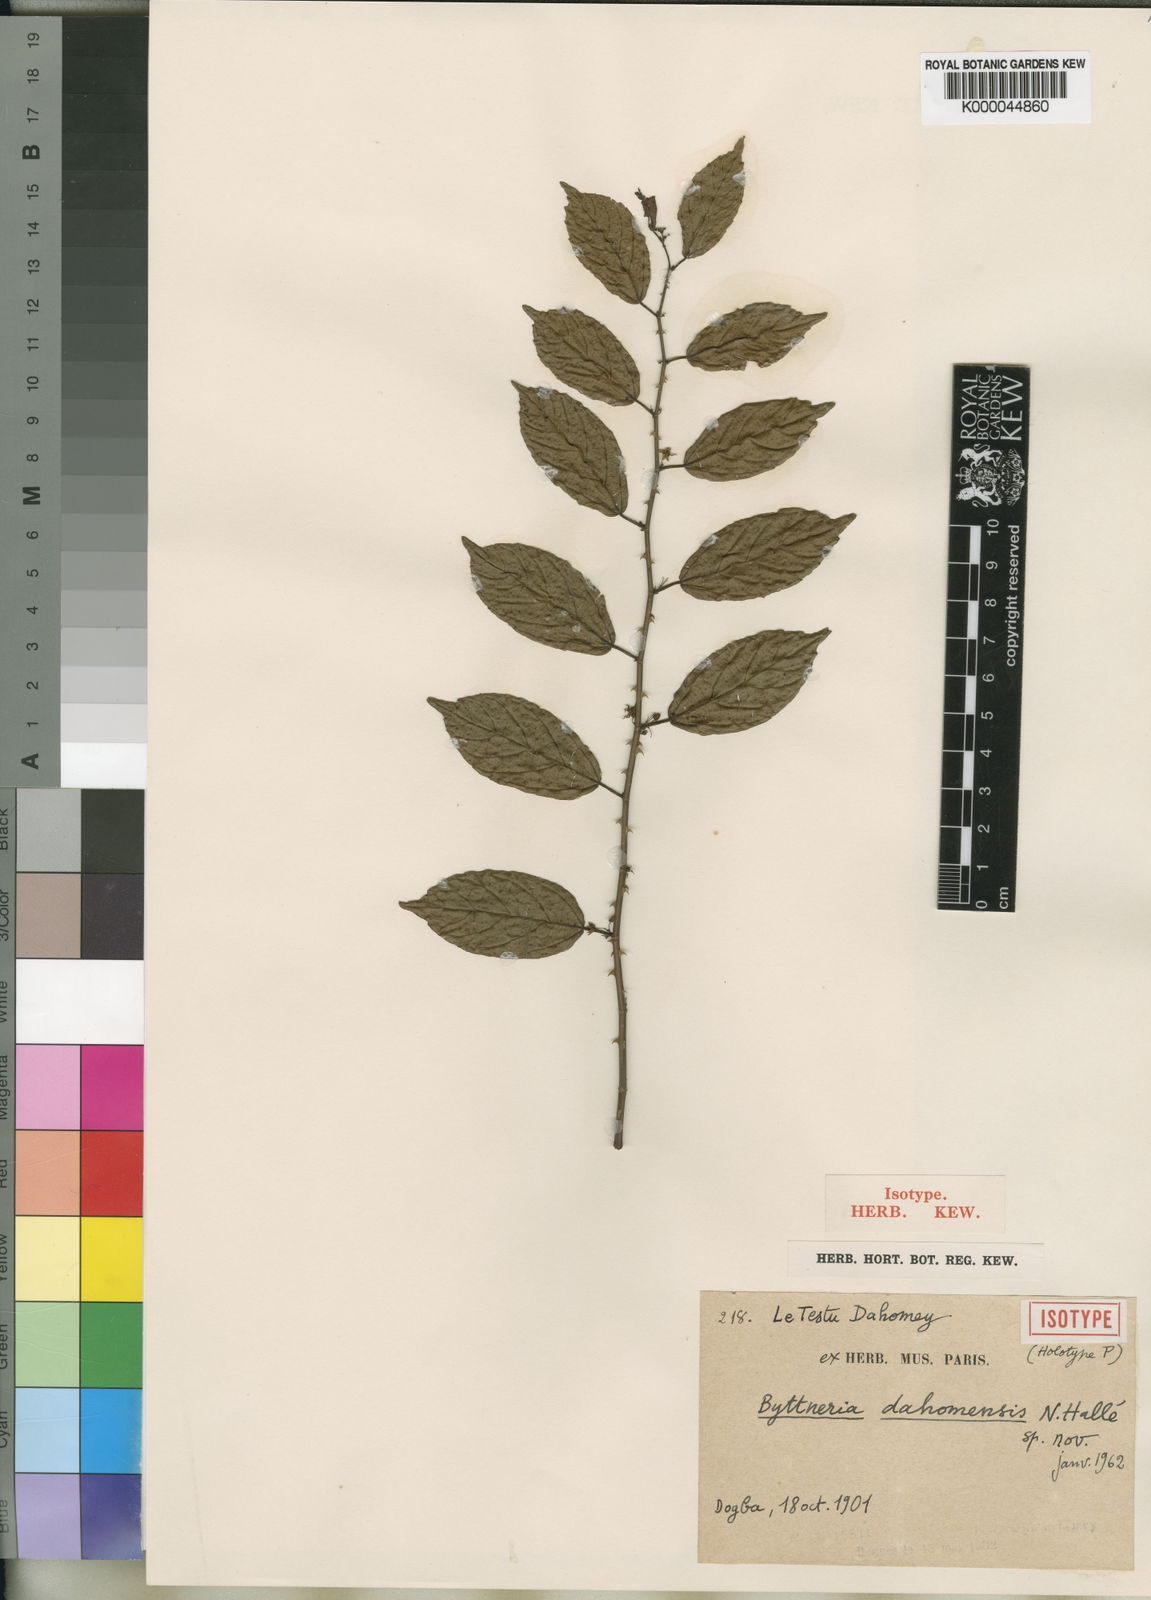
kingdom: Plantae
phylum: Tracheophyta
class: Magnoliopsida
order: Malvales
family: Malvaceae
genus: Byttneria
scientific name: Byttneria
